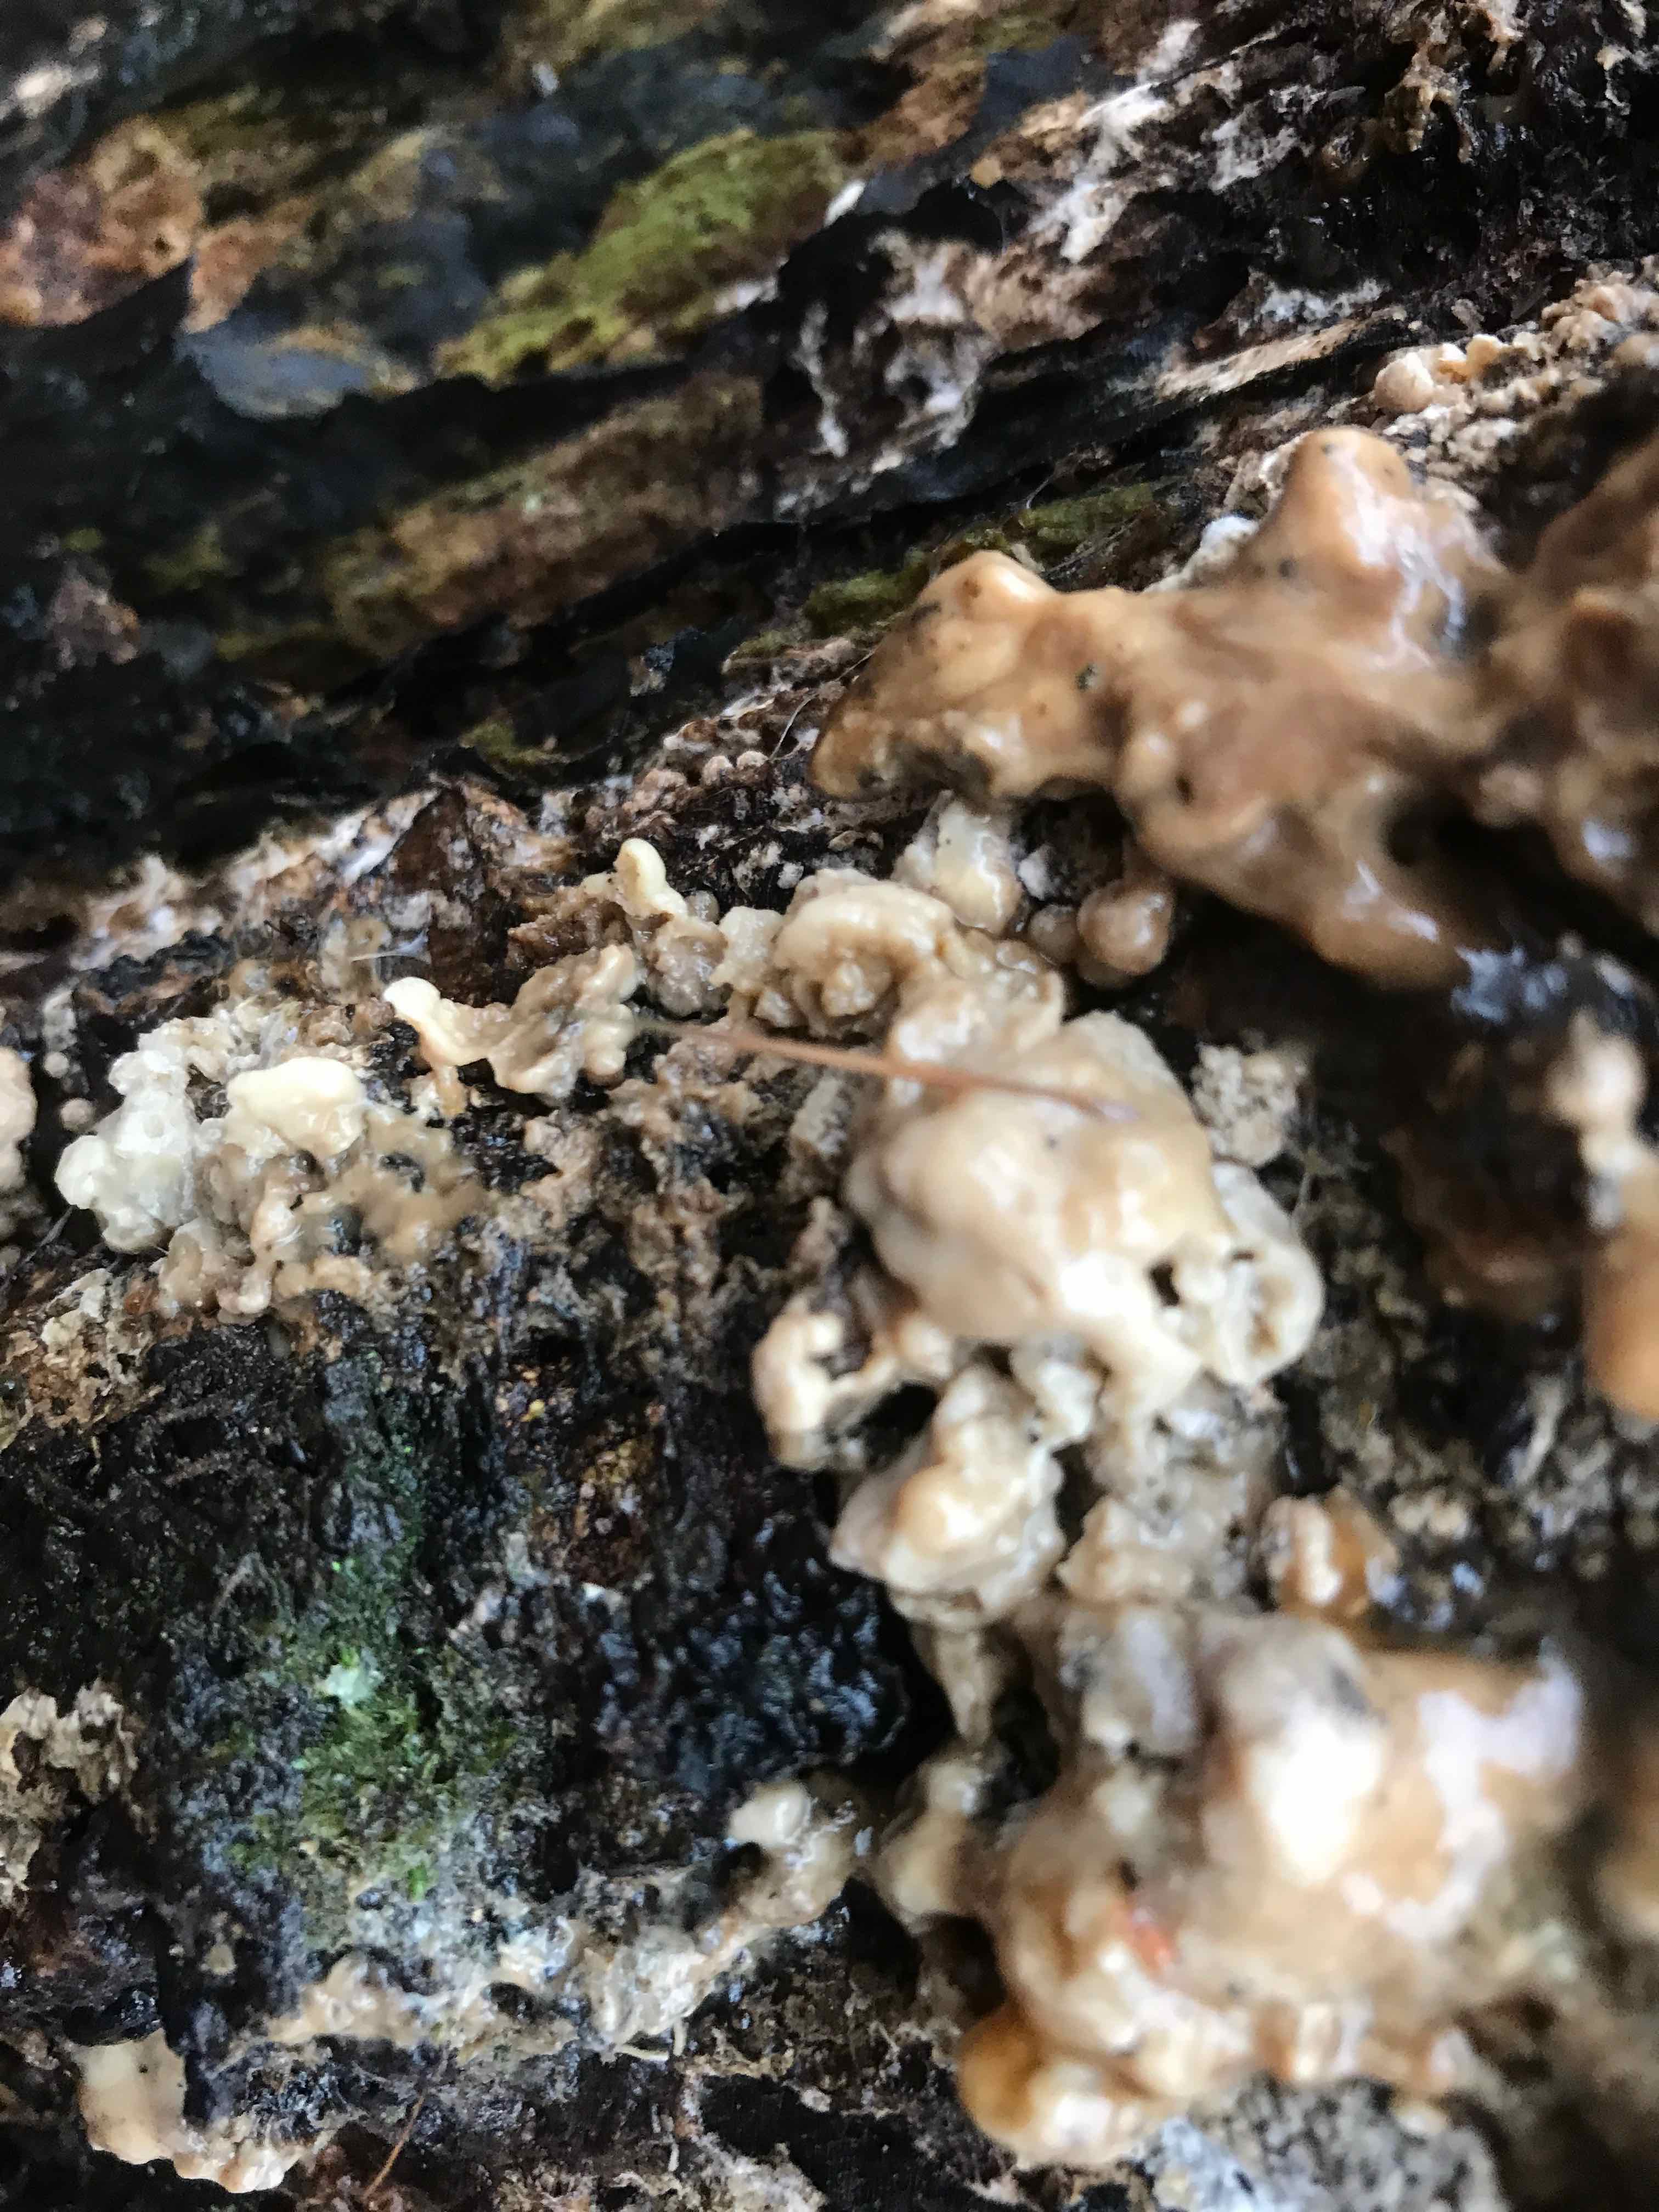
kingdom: Fungi
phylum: Ascomycota
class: Sordariomycetes
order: Xylariales
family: Hypoxylaceae
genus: Nodulisporium
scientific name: Nodulisporium cecidiogenes
